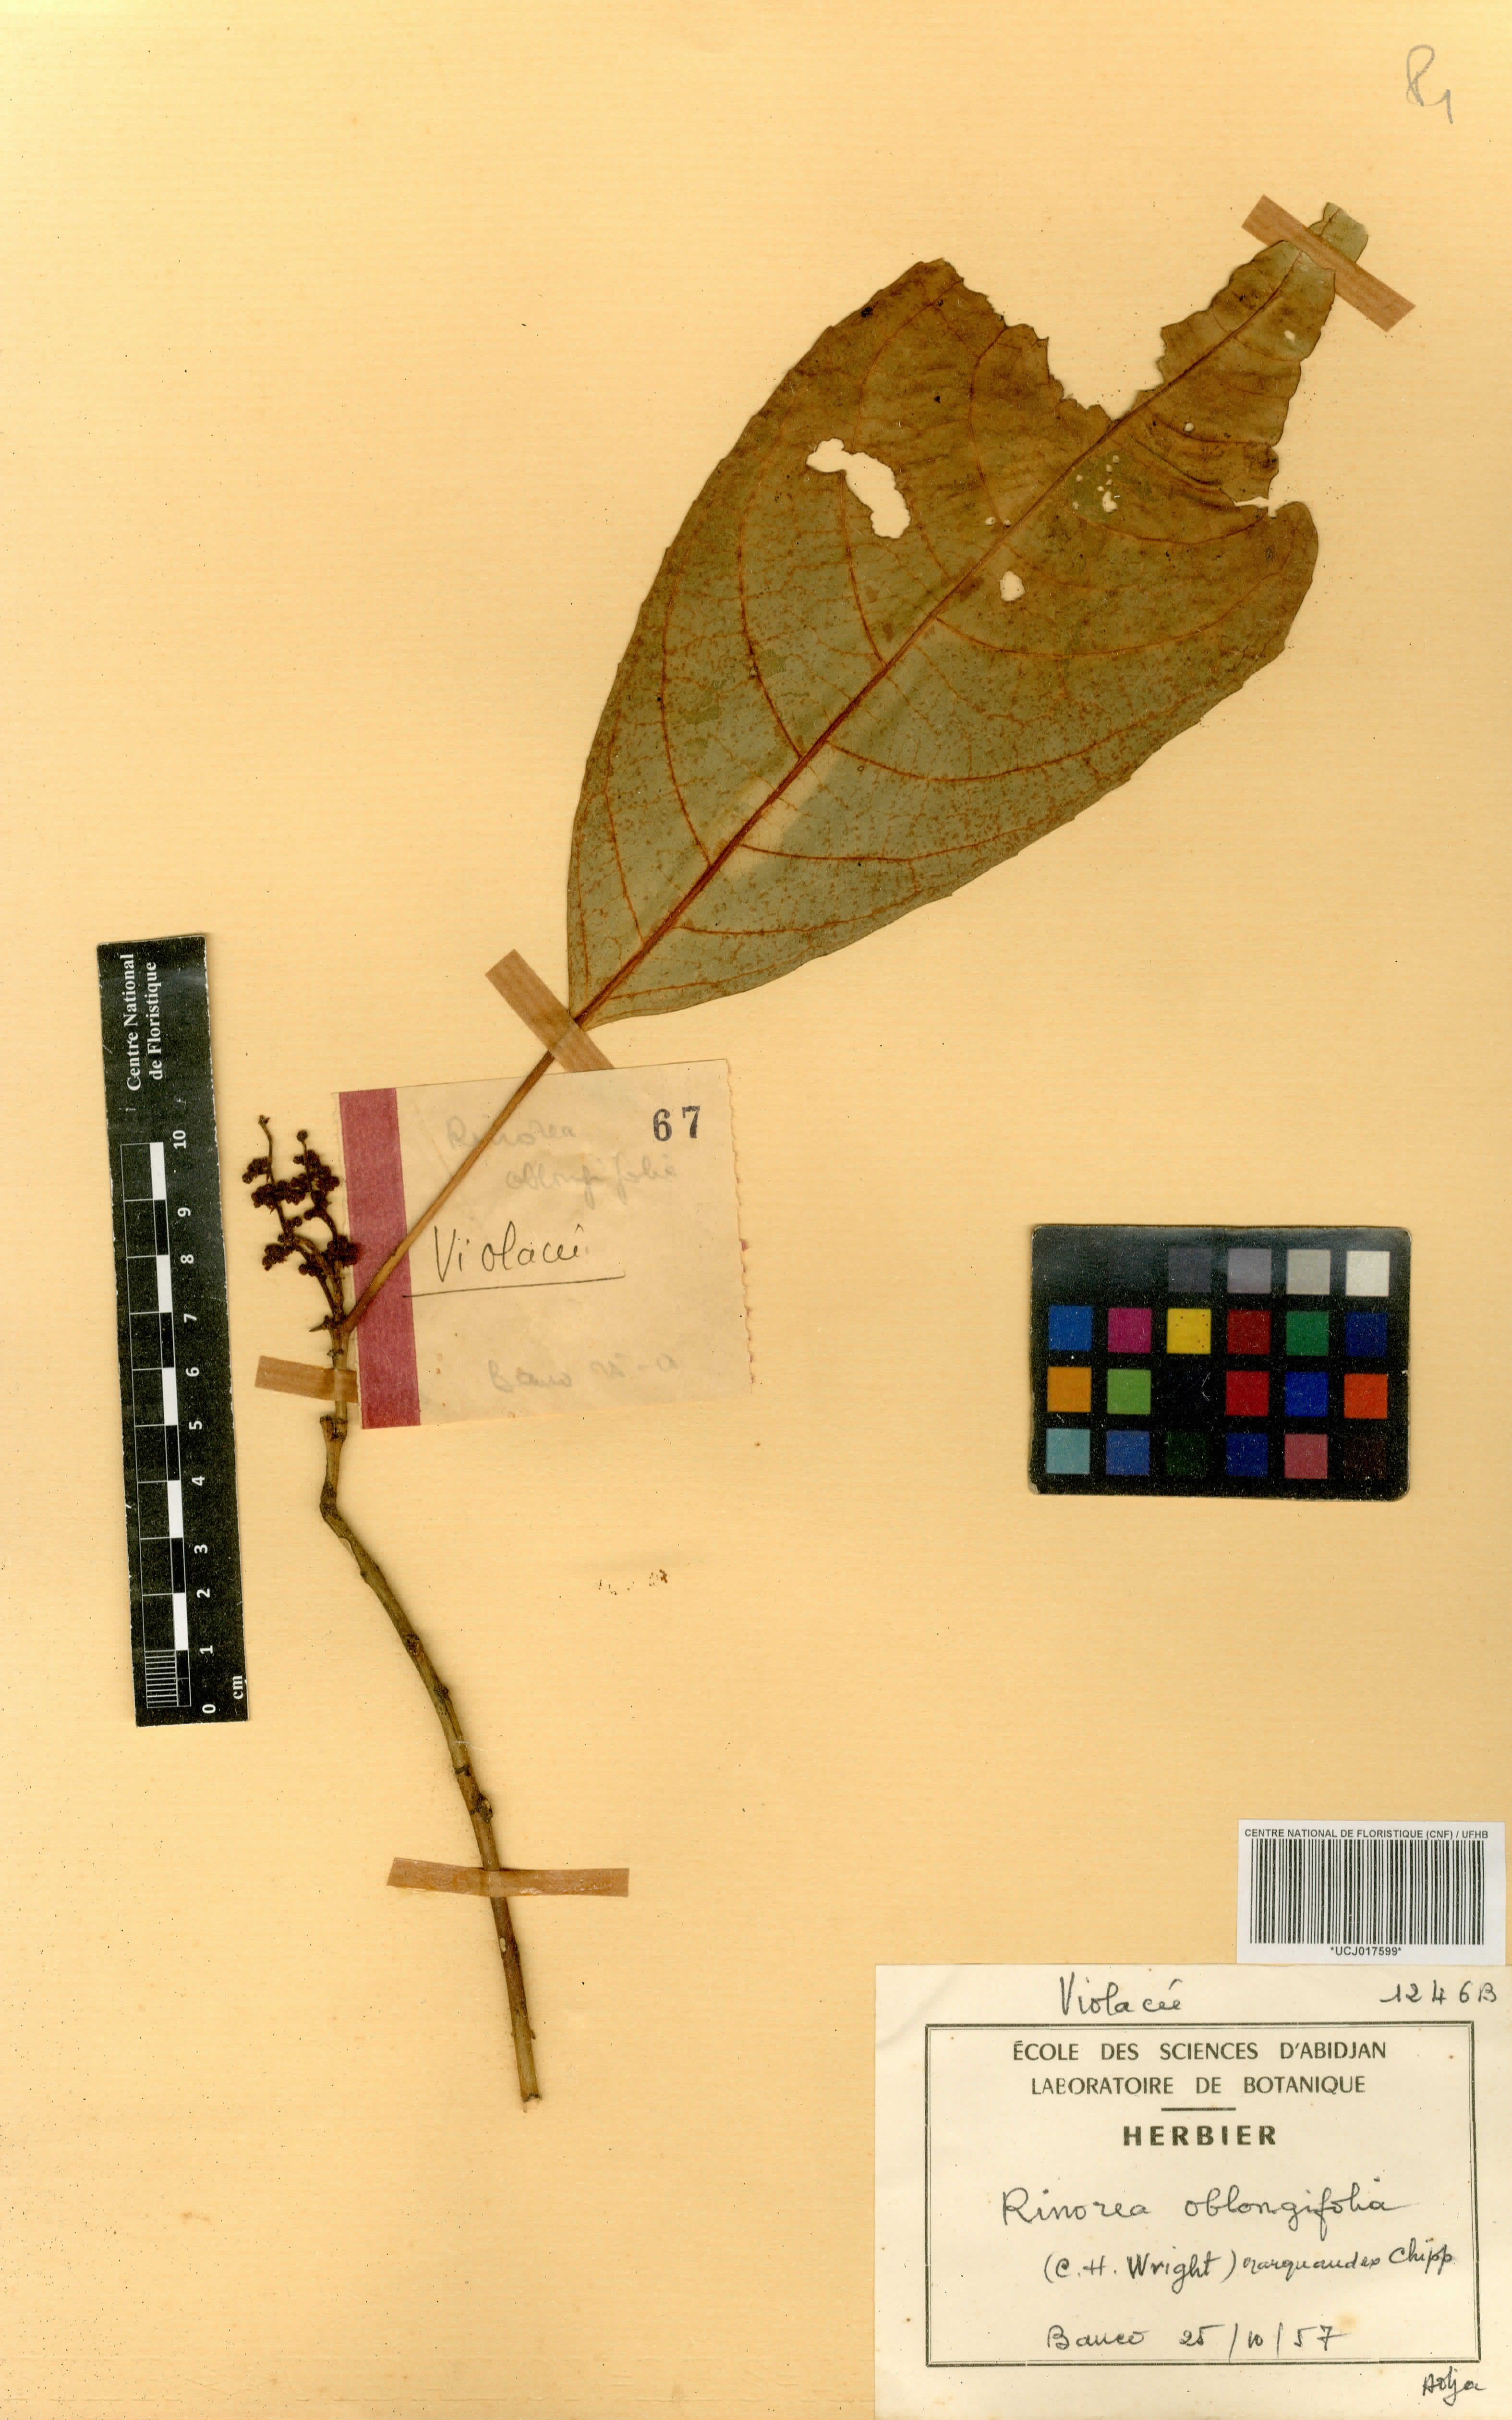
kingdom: Plantae
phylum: Tracheophyta
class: Magnoliopsida
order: Apiales
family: Pittosporaceae
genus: Marianthus
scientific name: Marianthus coeruleopunctatus
